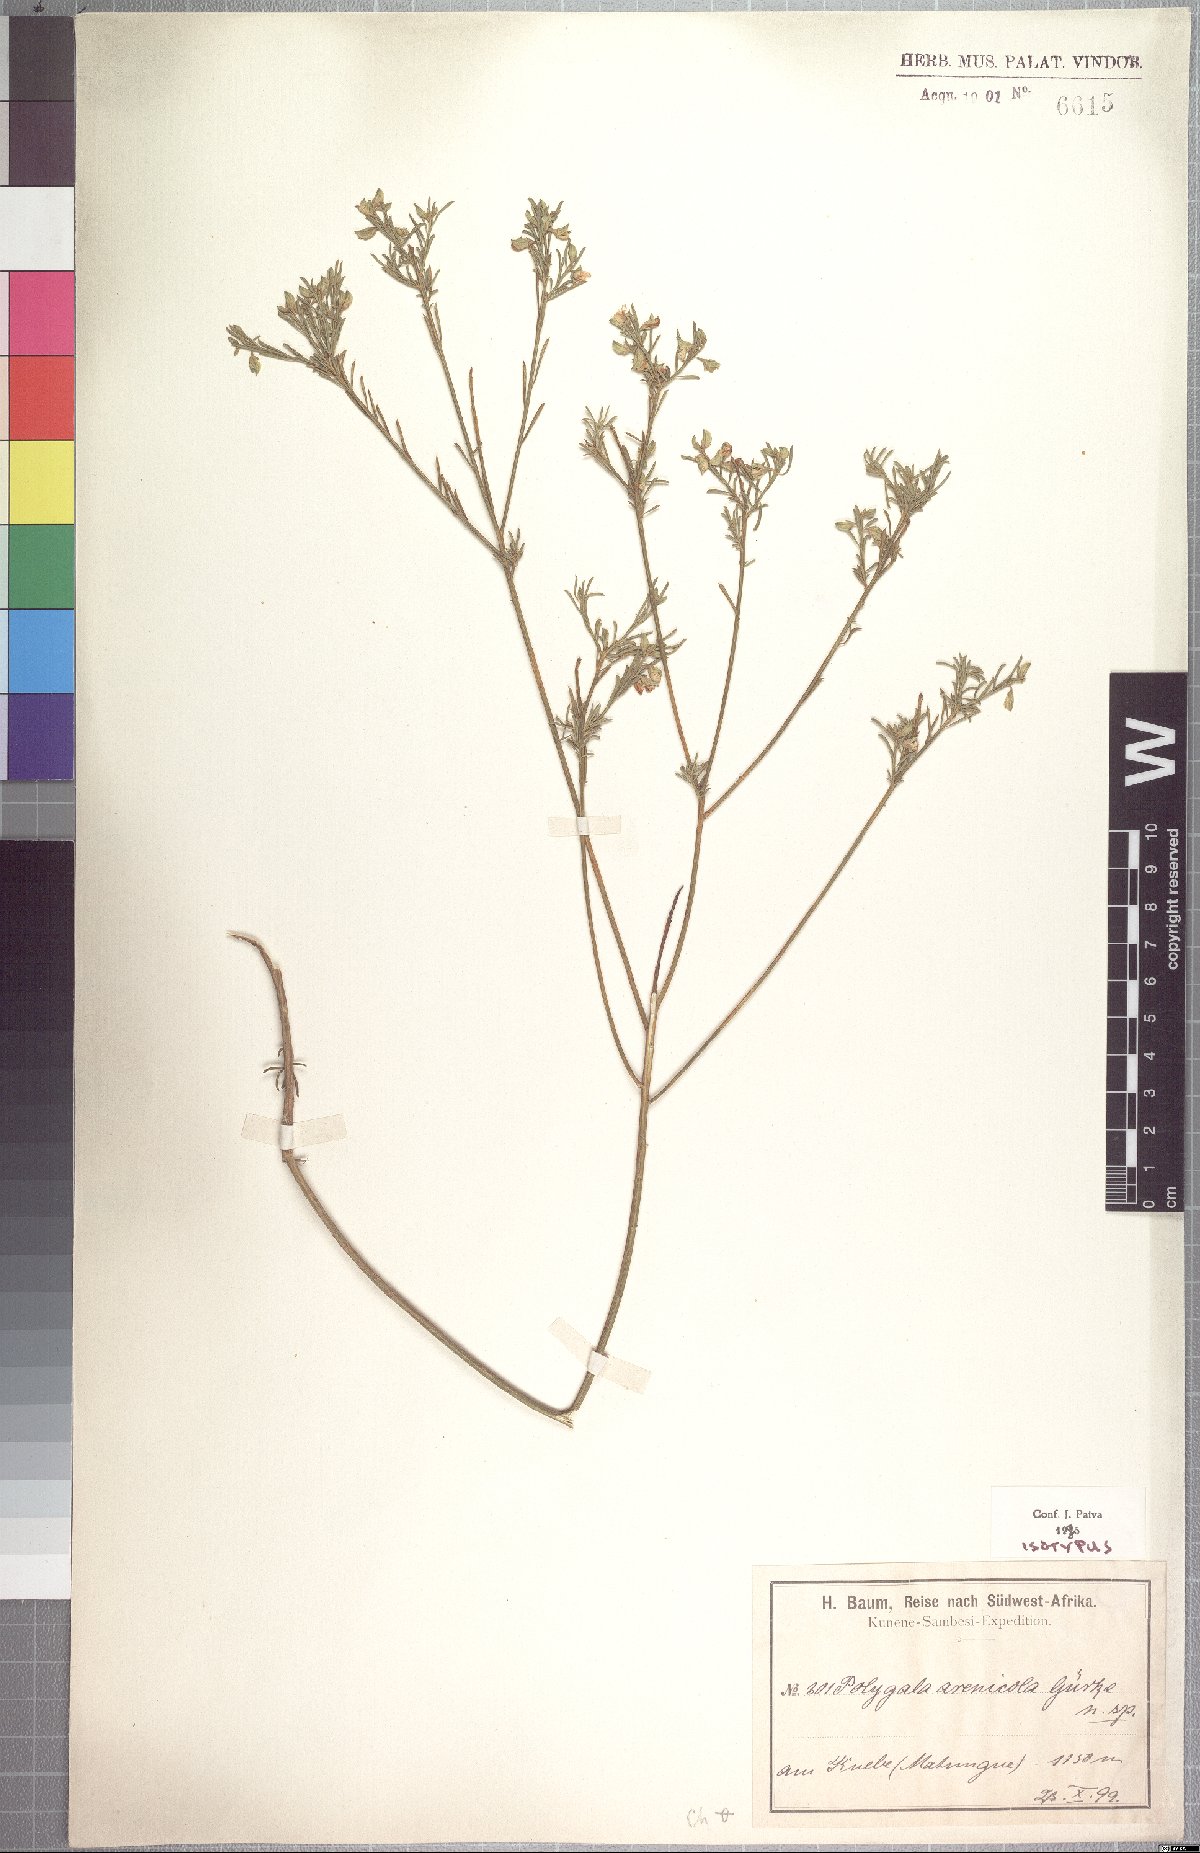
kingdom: Plantae
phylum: Tracheophyta
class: Magnoliopsida
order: Fabales
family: Polygalaceae
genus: Polygala
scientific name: Polygala arenicola
